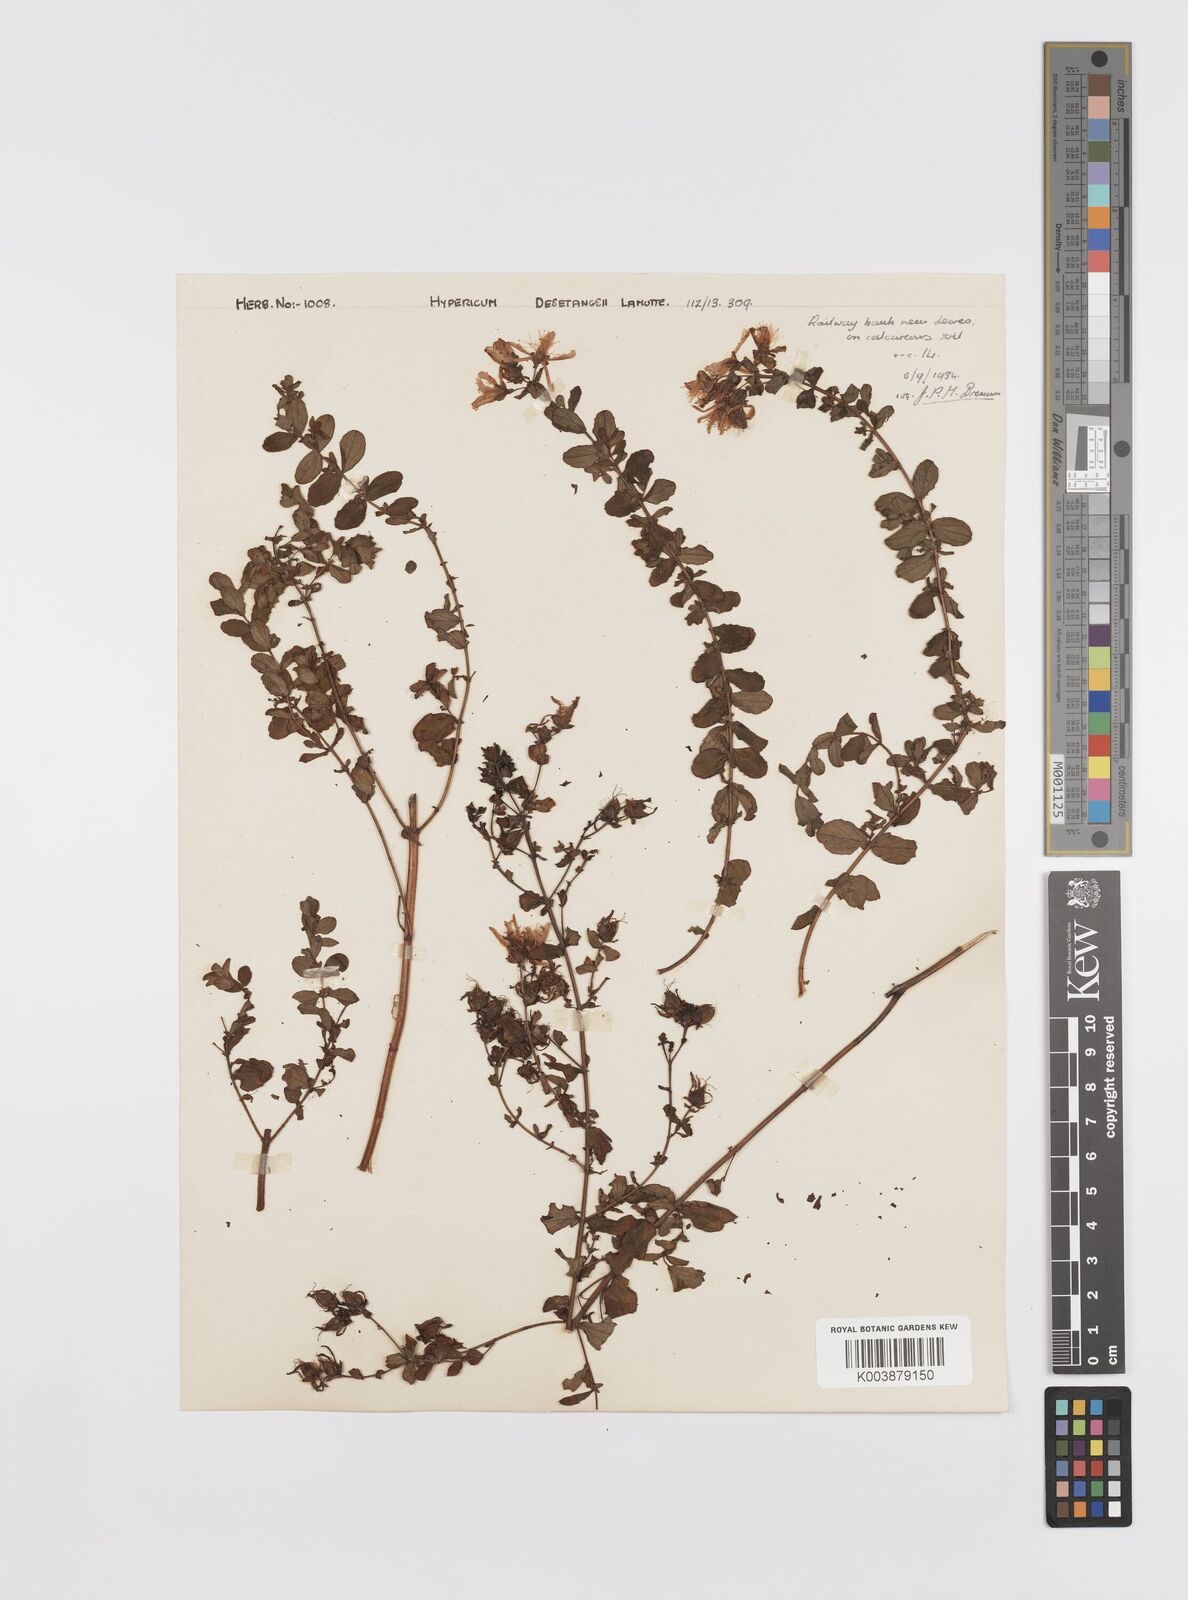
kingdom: Plantae
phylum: Tracheophyta
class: Magnoliopsida
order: Malpighiales
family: Hypericaceae
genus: Hypericum
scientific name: Hypericum desetangsii
